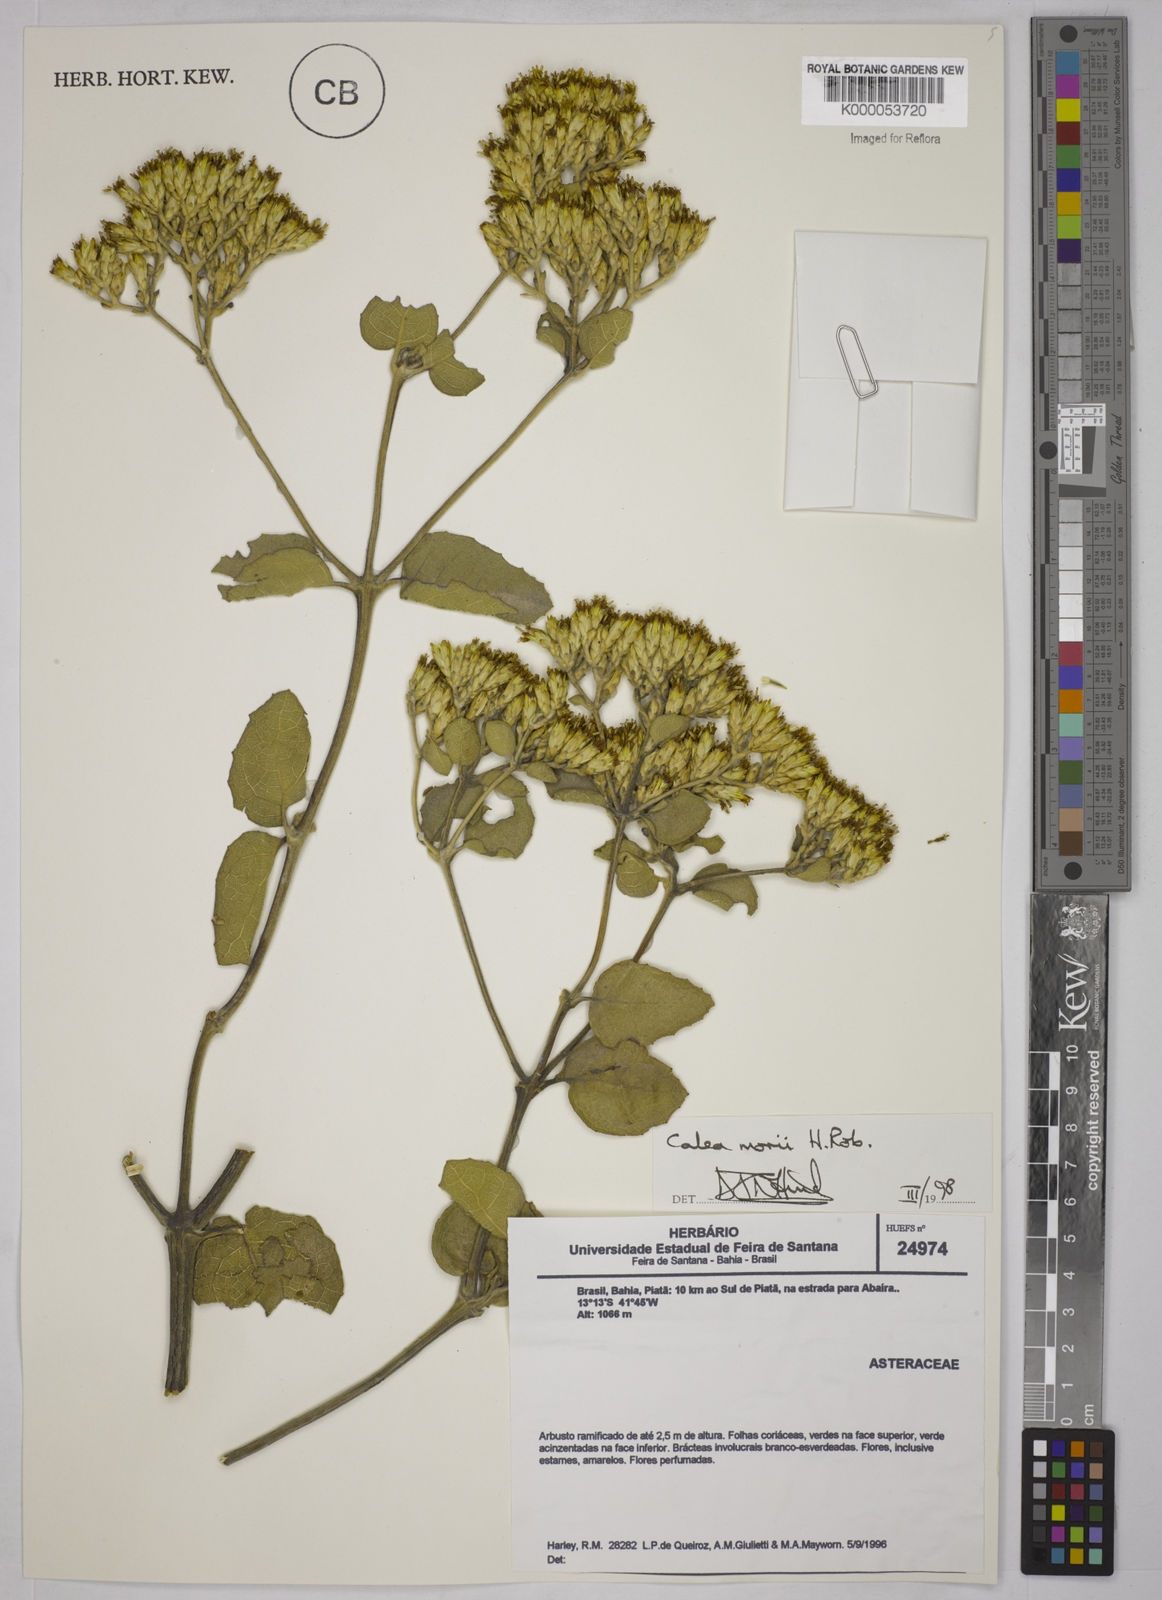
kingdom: Plantae
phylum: Tracheophyta
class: Magnoliopsida
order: Asterales
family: Asteraceae
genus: Calea
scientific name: Calea morii
